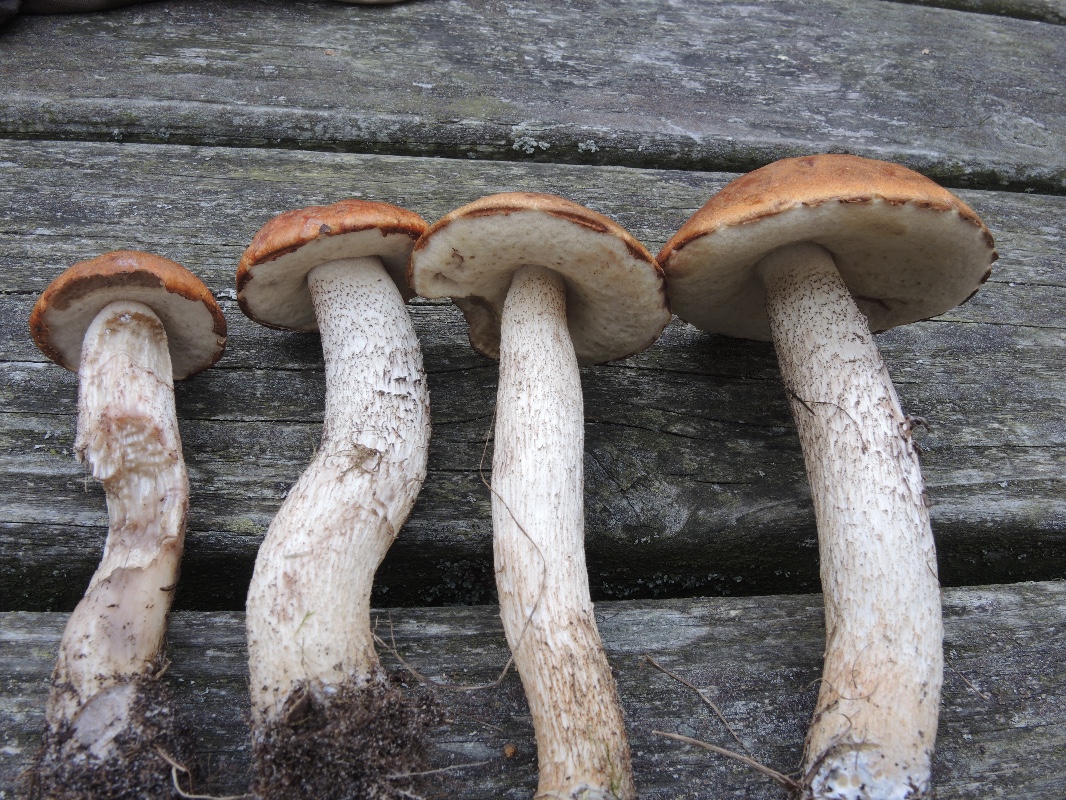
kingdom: Fungi
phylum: Basidiomycota
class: Agaricomycetes
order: Boletales
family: Boletaceae
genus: Leccinum
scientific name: Leccinum albostipitatum
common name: aspe-skælrørhat
